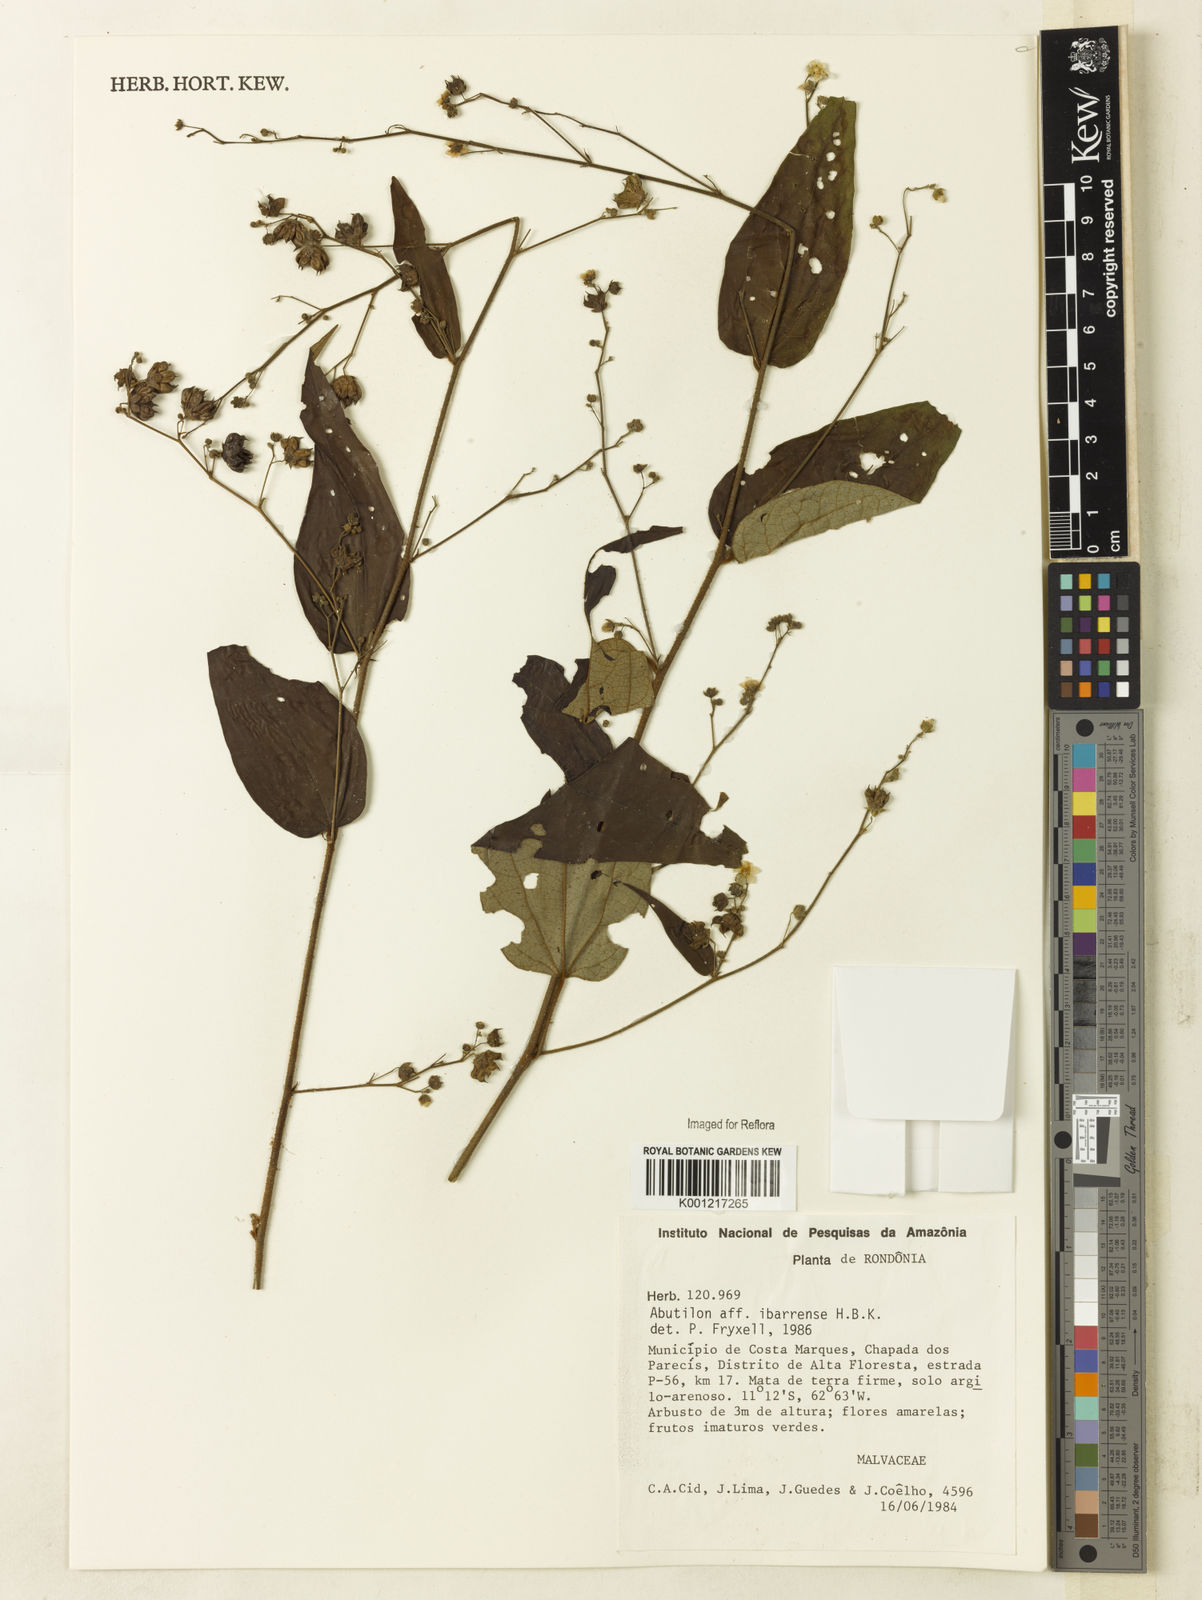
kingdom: Plantae
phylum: Tracheophyta
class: Magnoliopsida
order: Malvales
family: Malvaceae
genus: Abutilon
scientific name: Abutilon ibarrense
